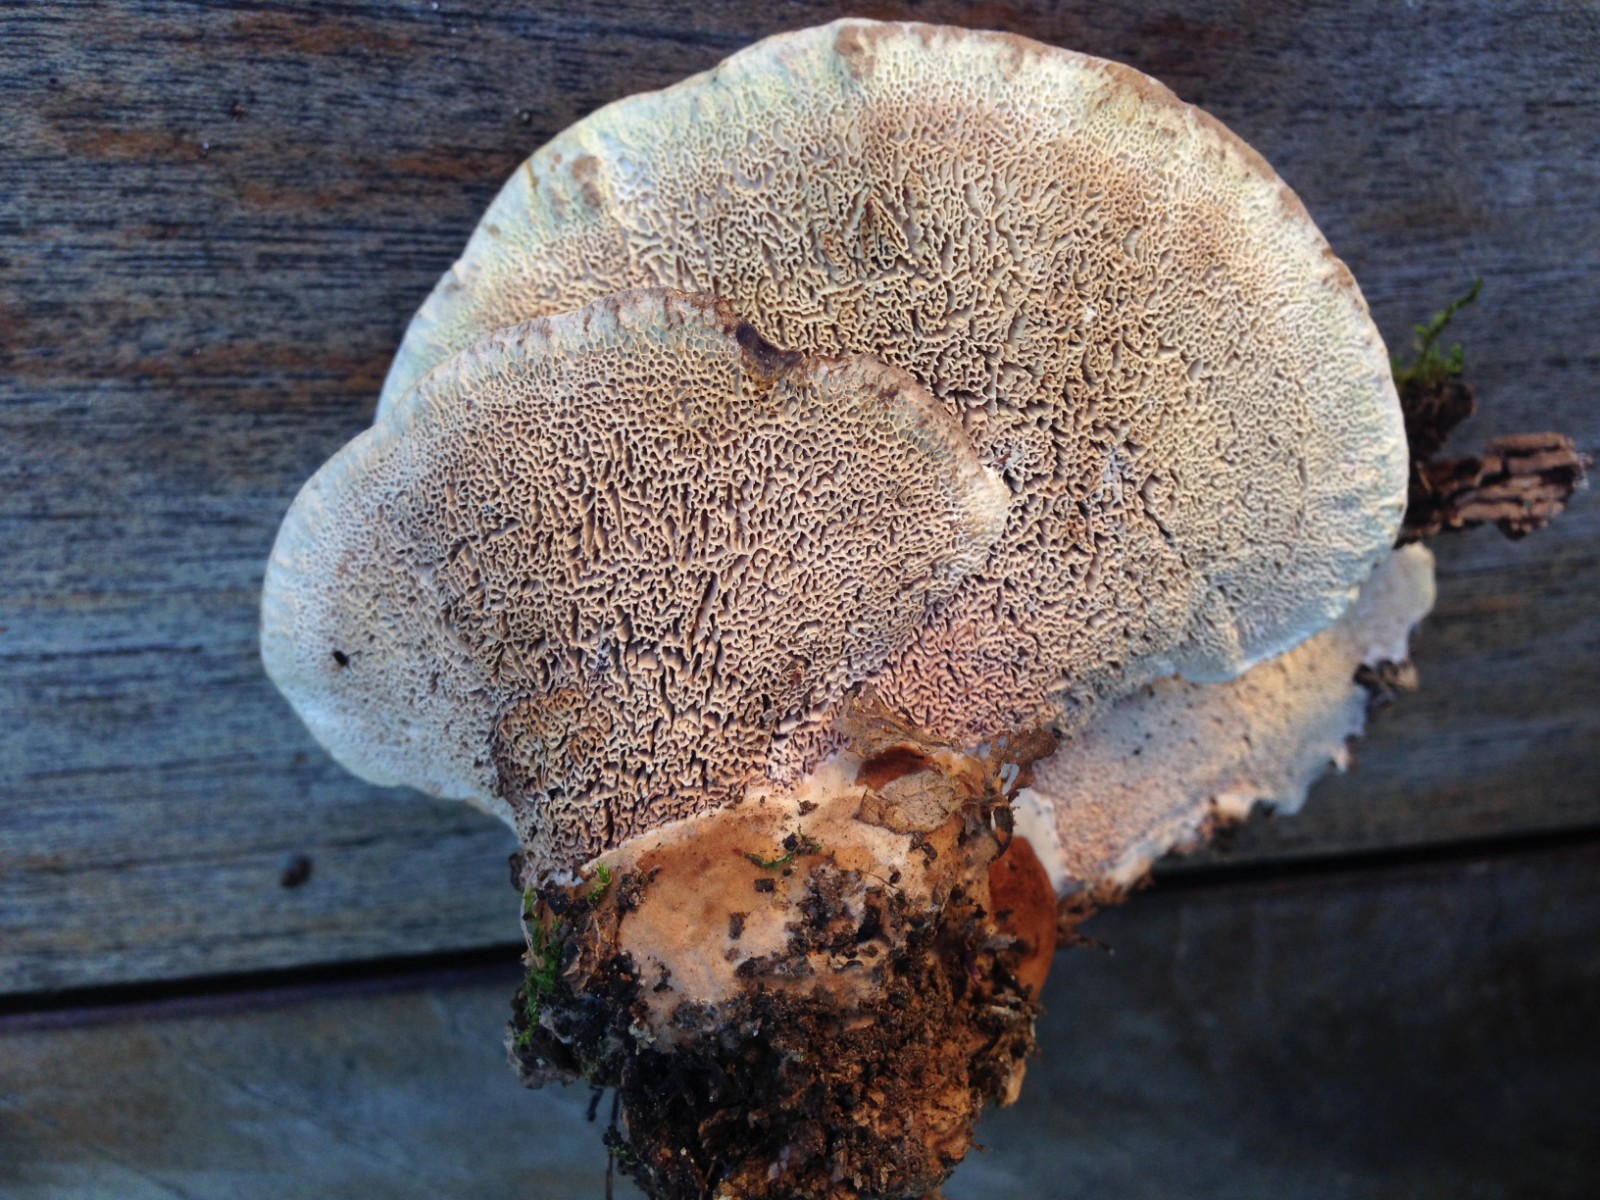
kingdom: Fungi
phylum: Basidiomycota
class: Agaricomycetes
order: Polyporales
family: Podoscyphaceae
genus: Abortiporus
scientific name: Abortiporus biennis
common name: rødmende pjalteporesvamp
